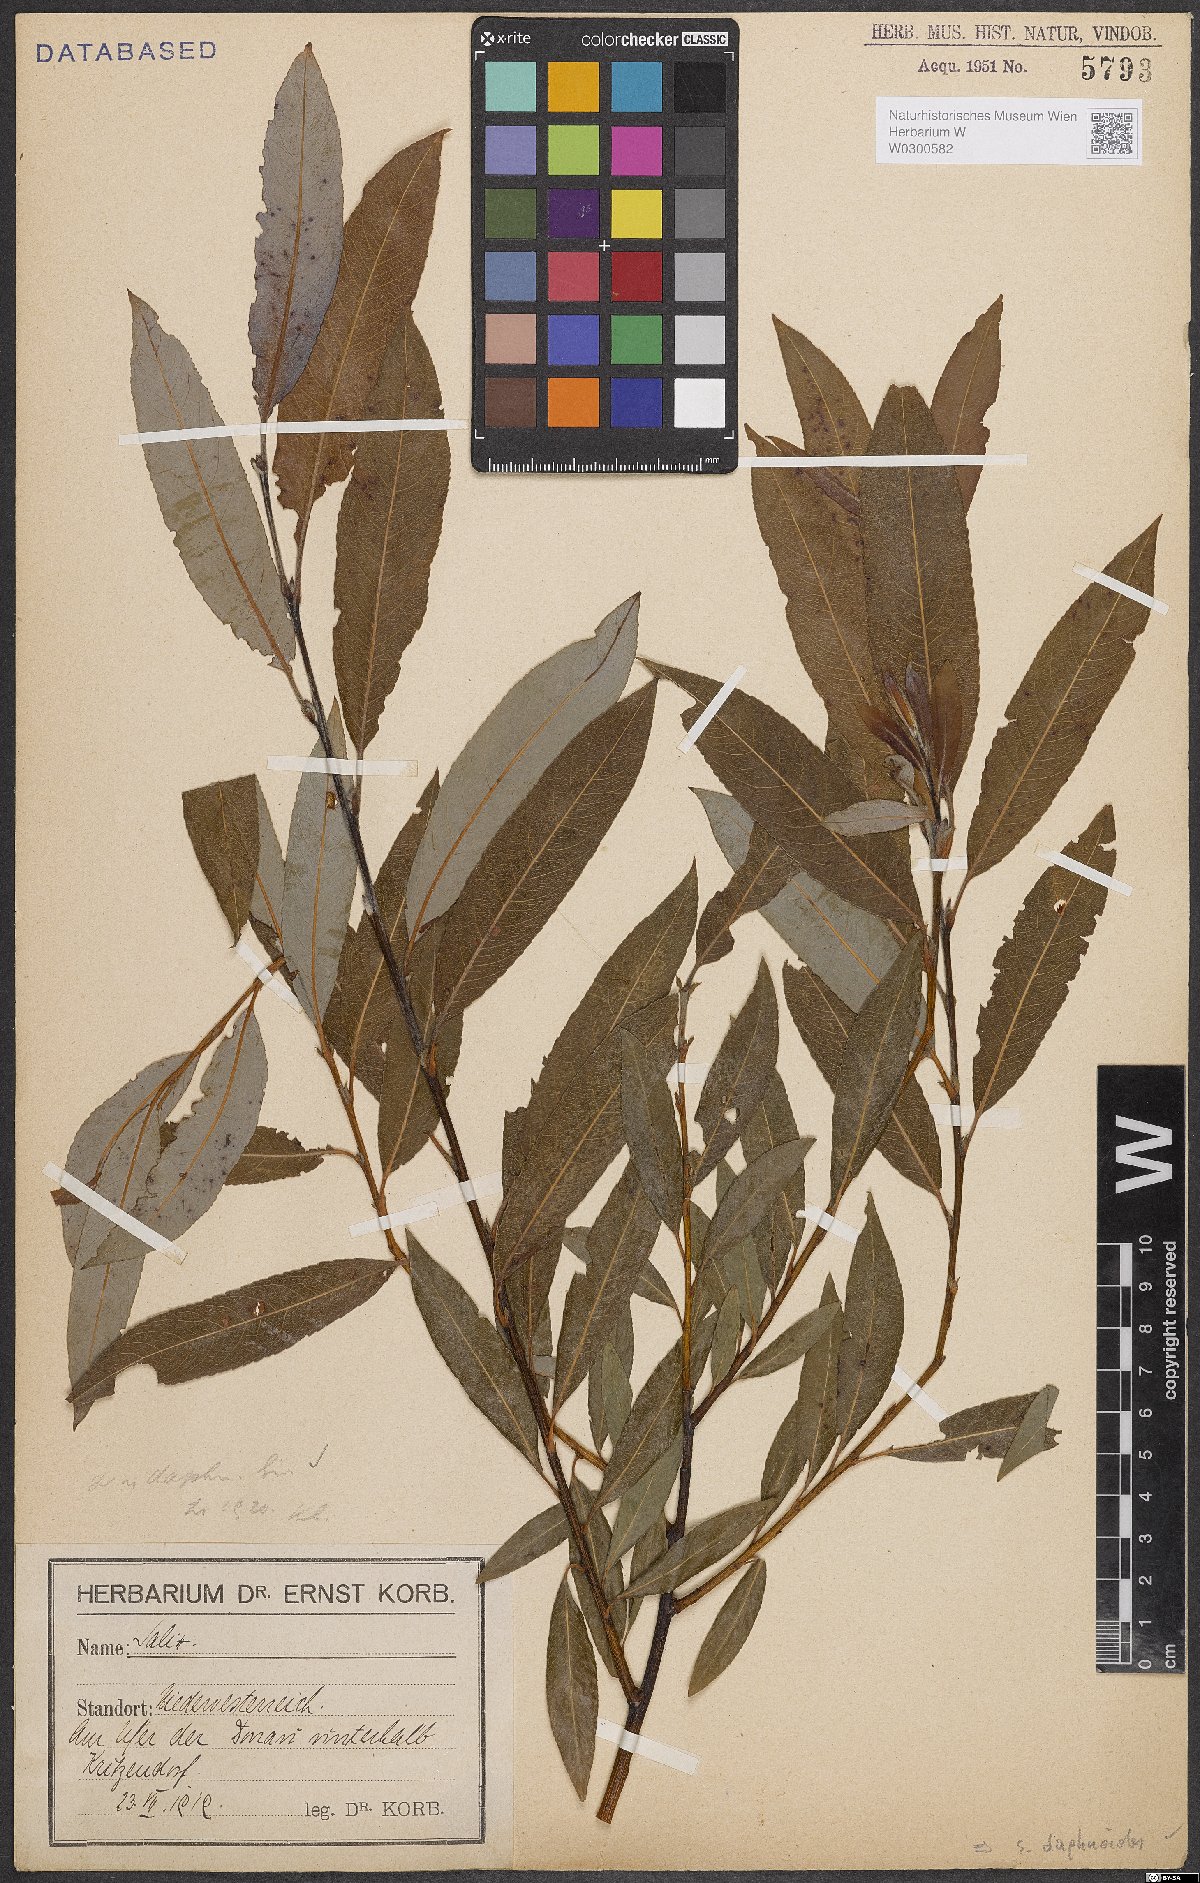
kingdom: Plantae
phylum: Tracheophyta
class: Magnoliopsida
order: Malpighiales
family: Salicaceae
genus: Salix
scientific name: Salix daphnoides
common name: European violet-willow
